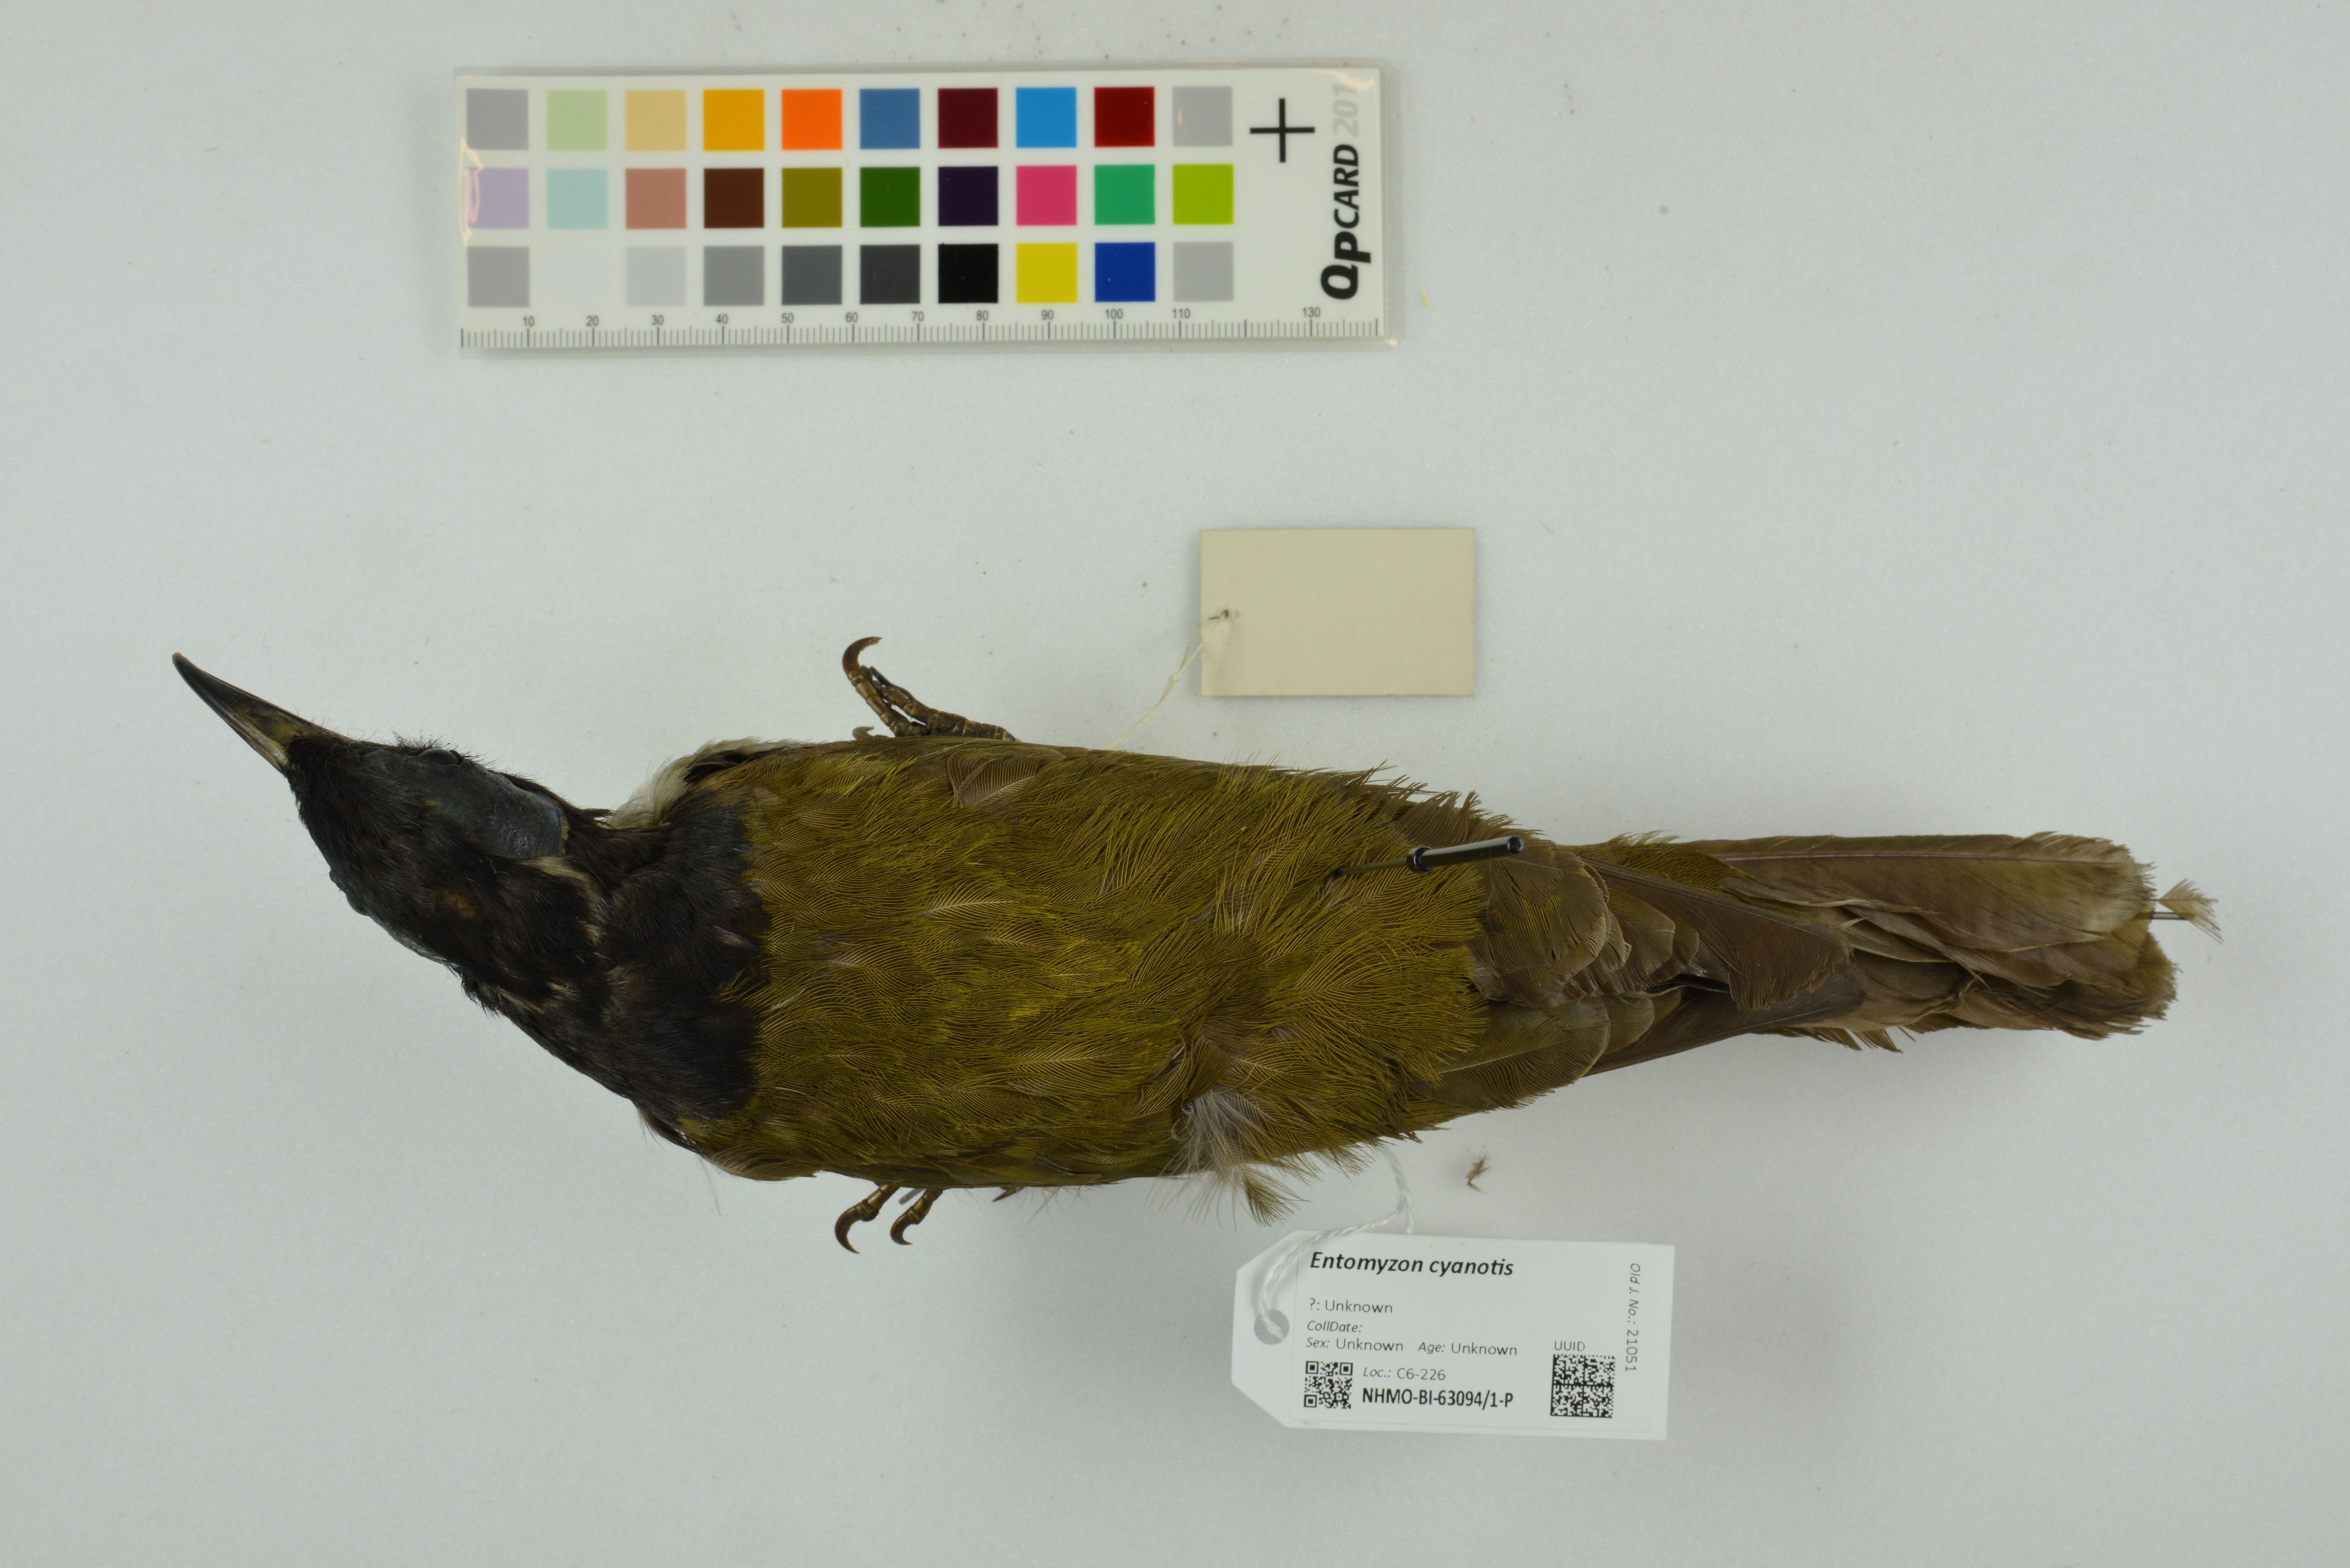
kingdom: Animalia
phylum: Chordata
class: Aves
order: Passeriformes
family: Meliphagidae
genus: Entomyzon
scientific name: Entomyzon cyanotis
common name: Blue-faced honeyeater
